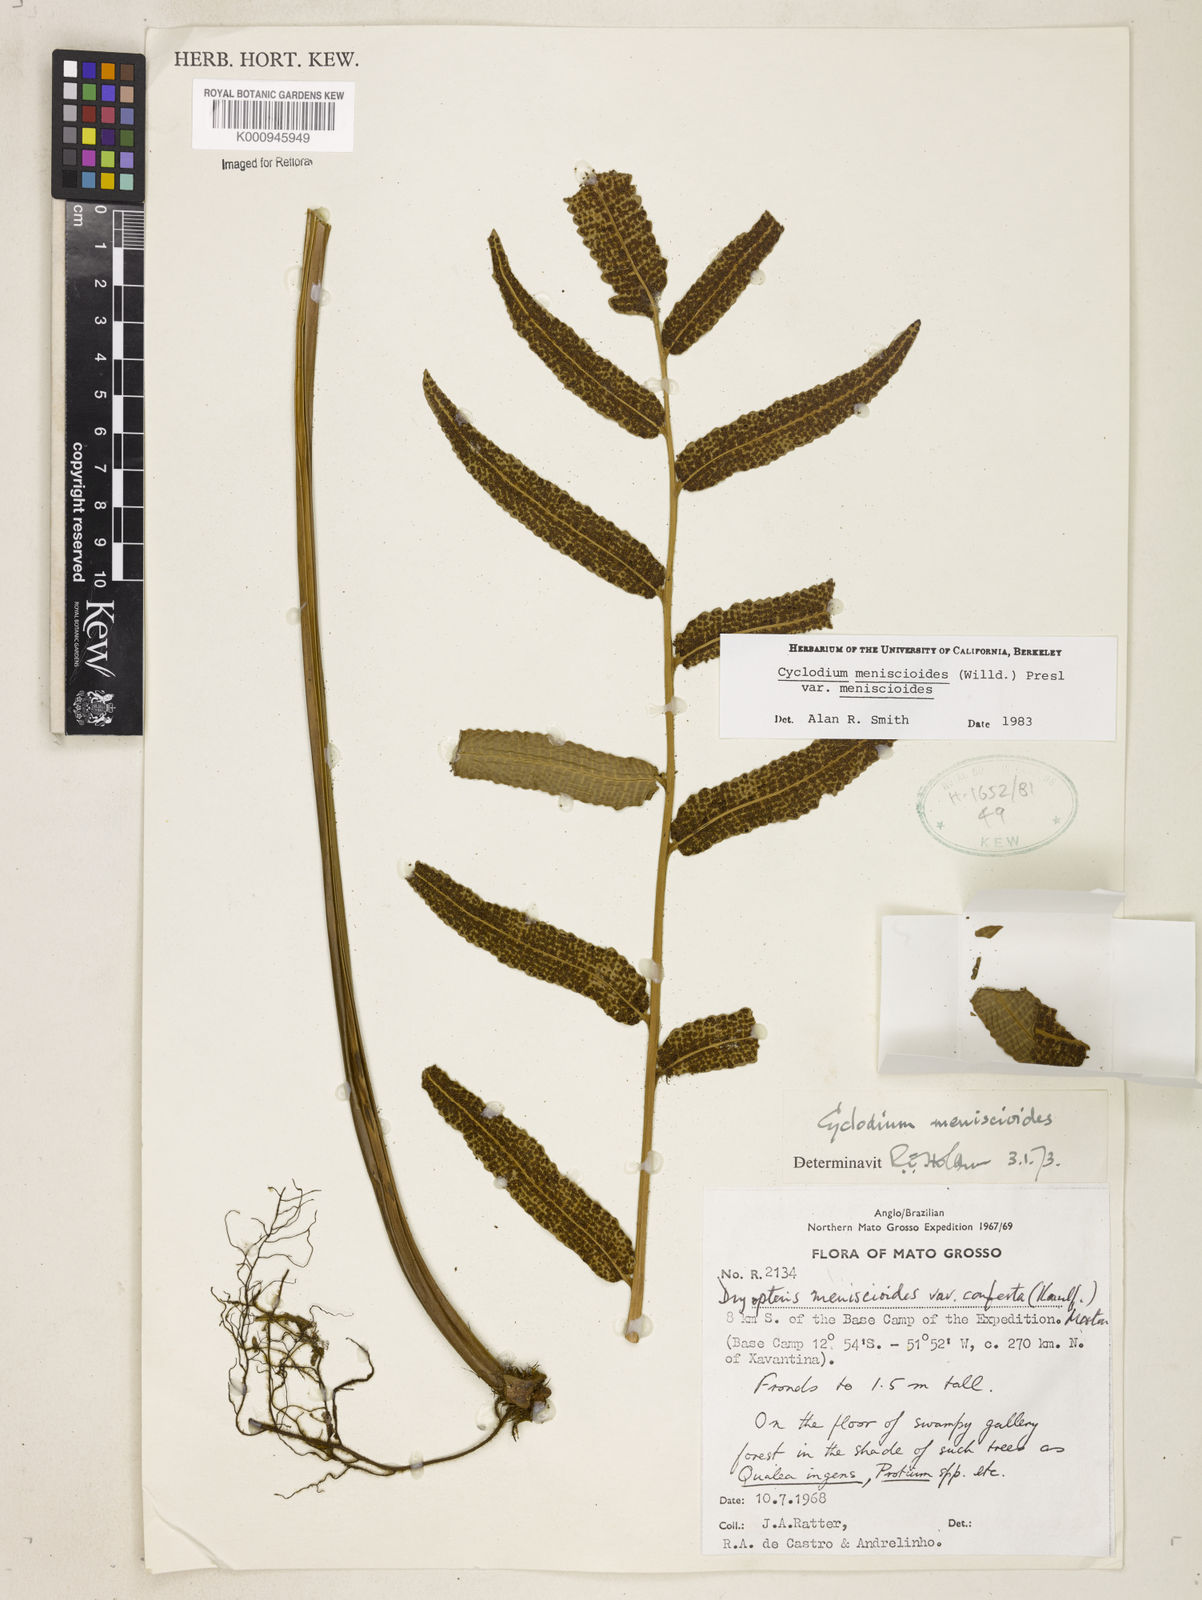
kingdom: Plantae
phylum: Tracheophyta
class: Polypodiopsida
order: Polypodiales
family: Dryopteridaceae
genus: Cyclodium
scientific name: Cyclodium meniscioides
